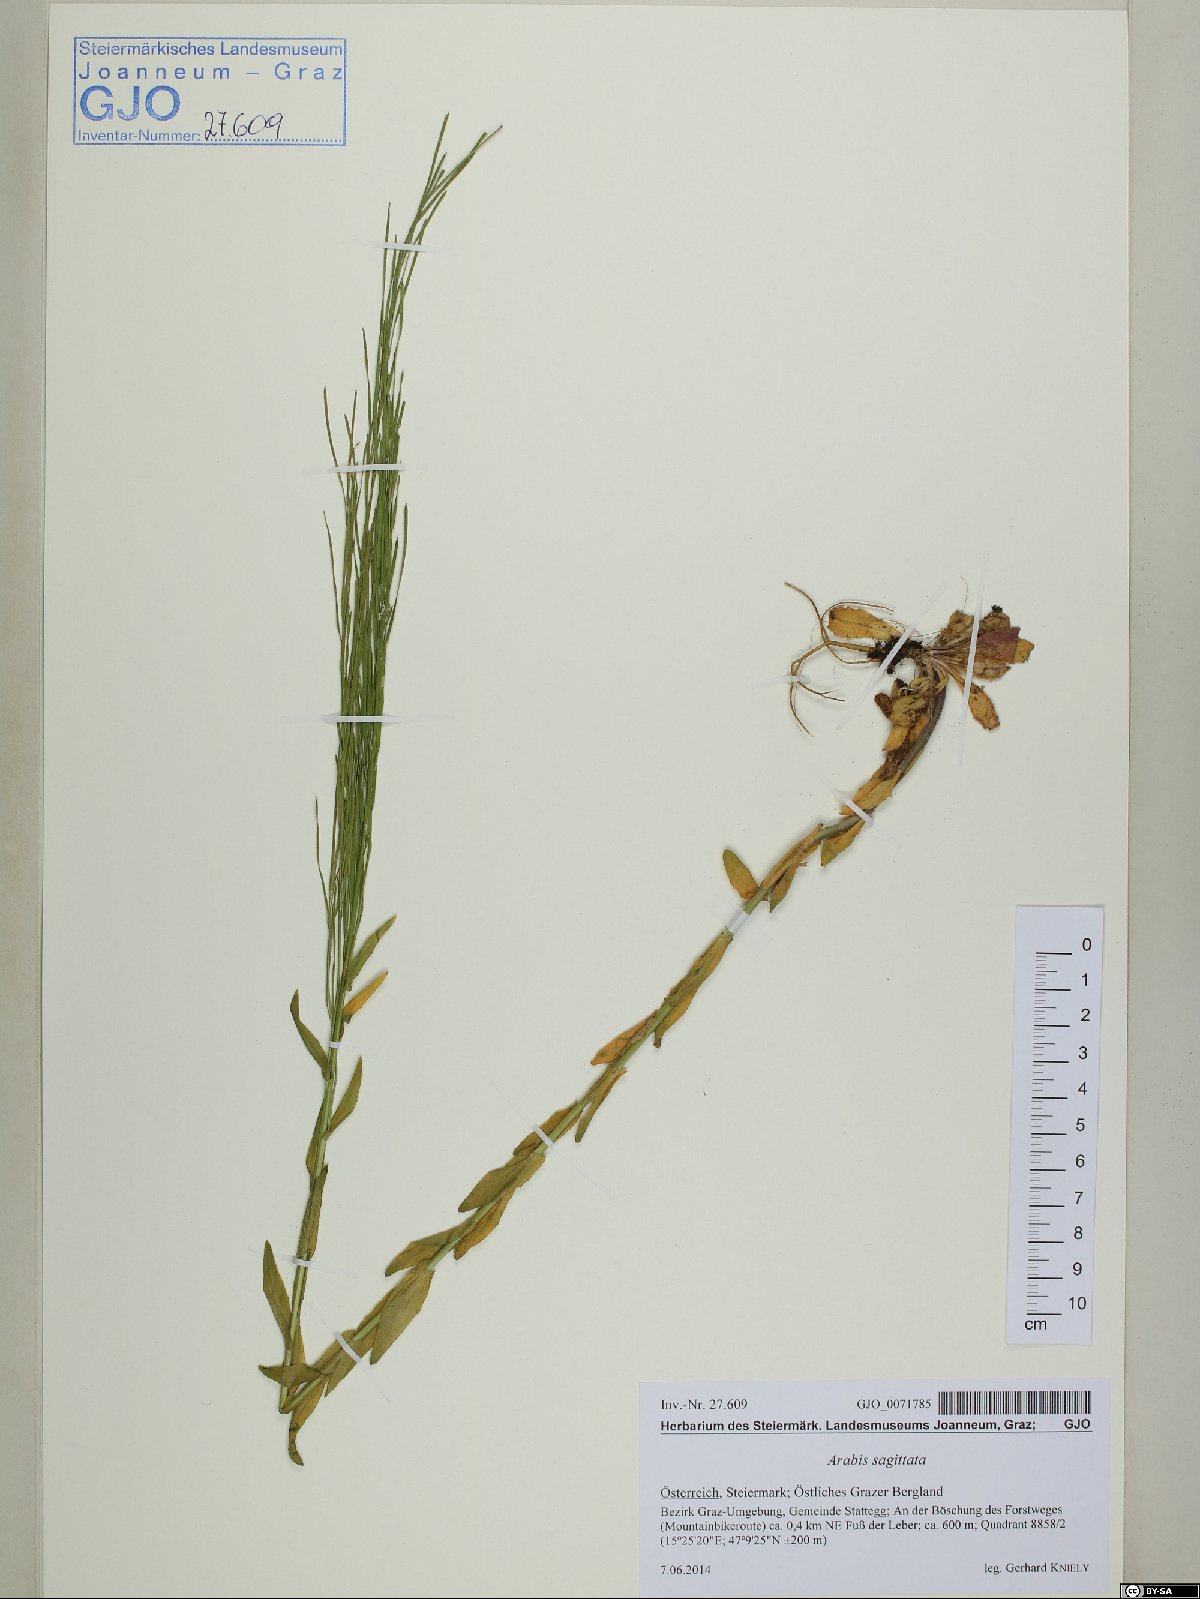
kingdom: Plantae
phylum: Tracheophyta
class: Magnoliopsida
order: Brassicales
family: Brassicaceae
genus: Arabis
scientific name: Arabis sagittata
